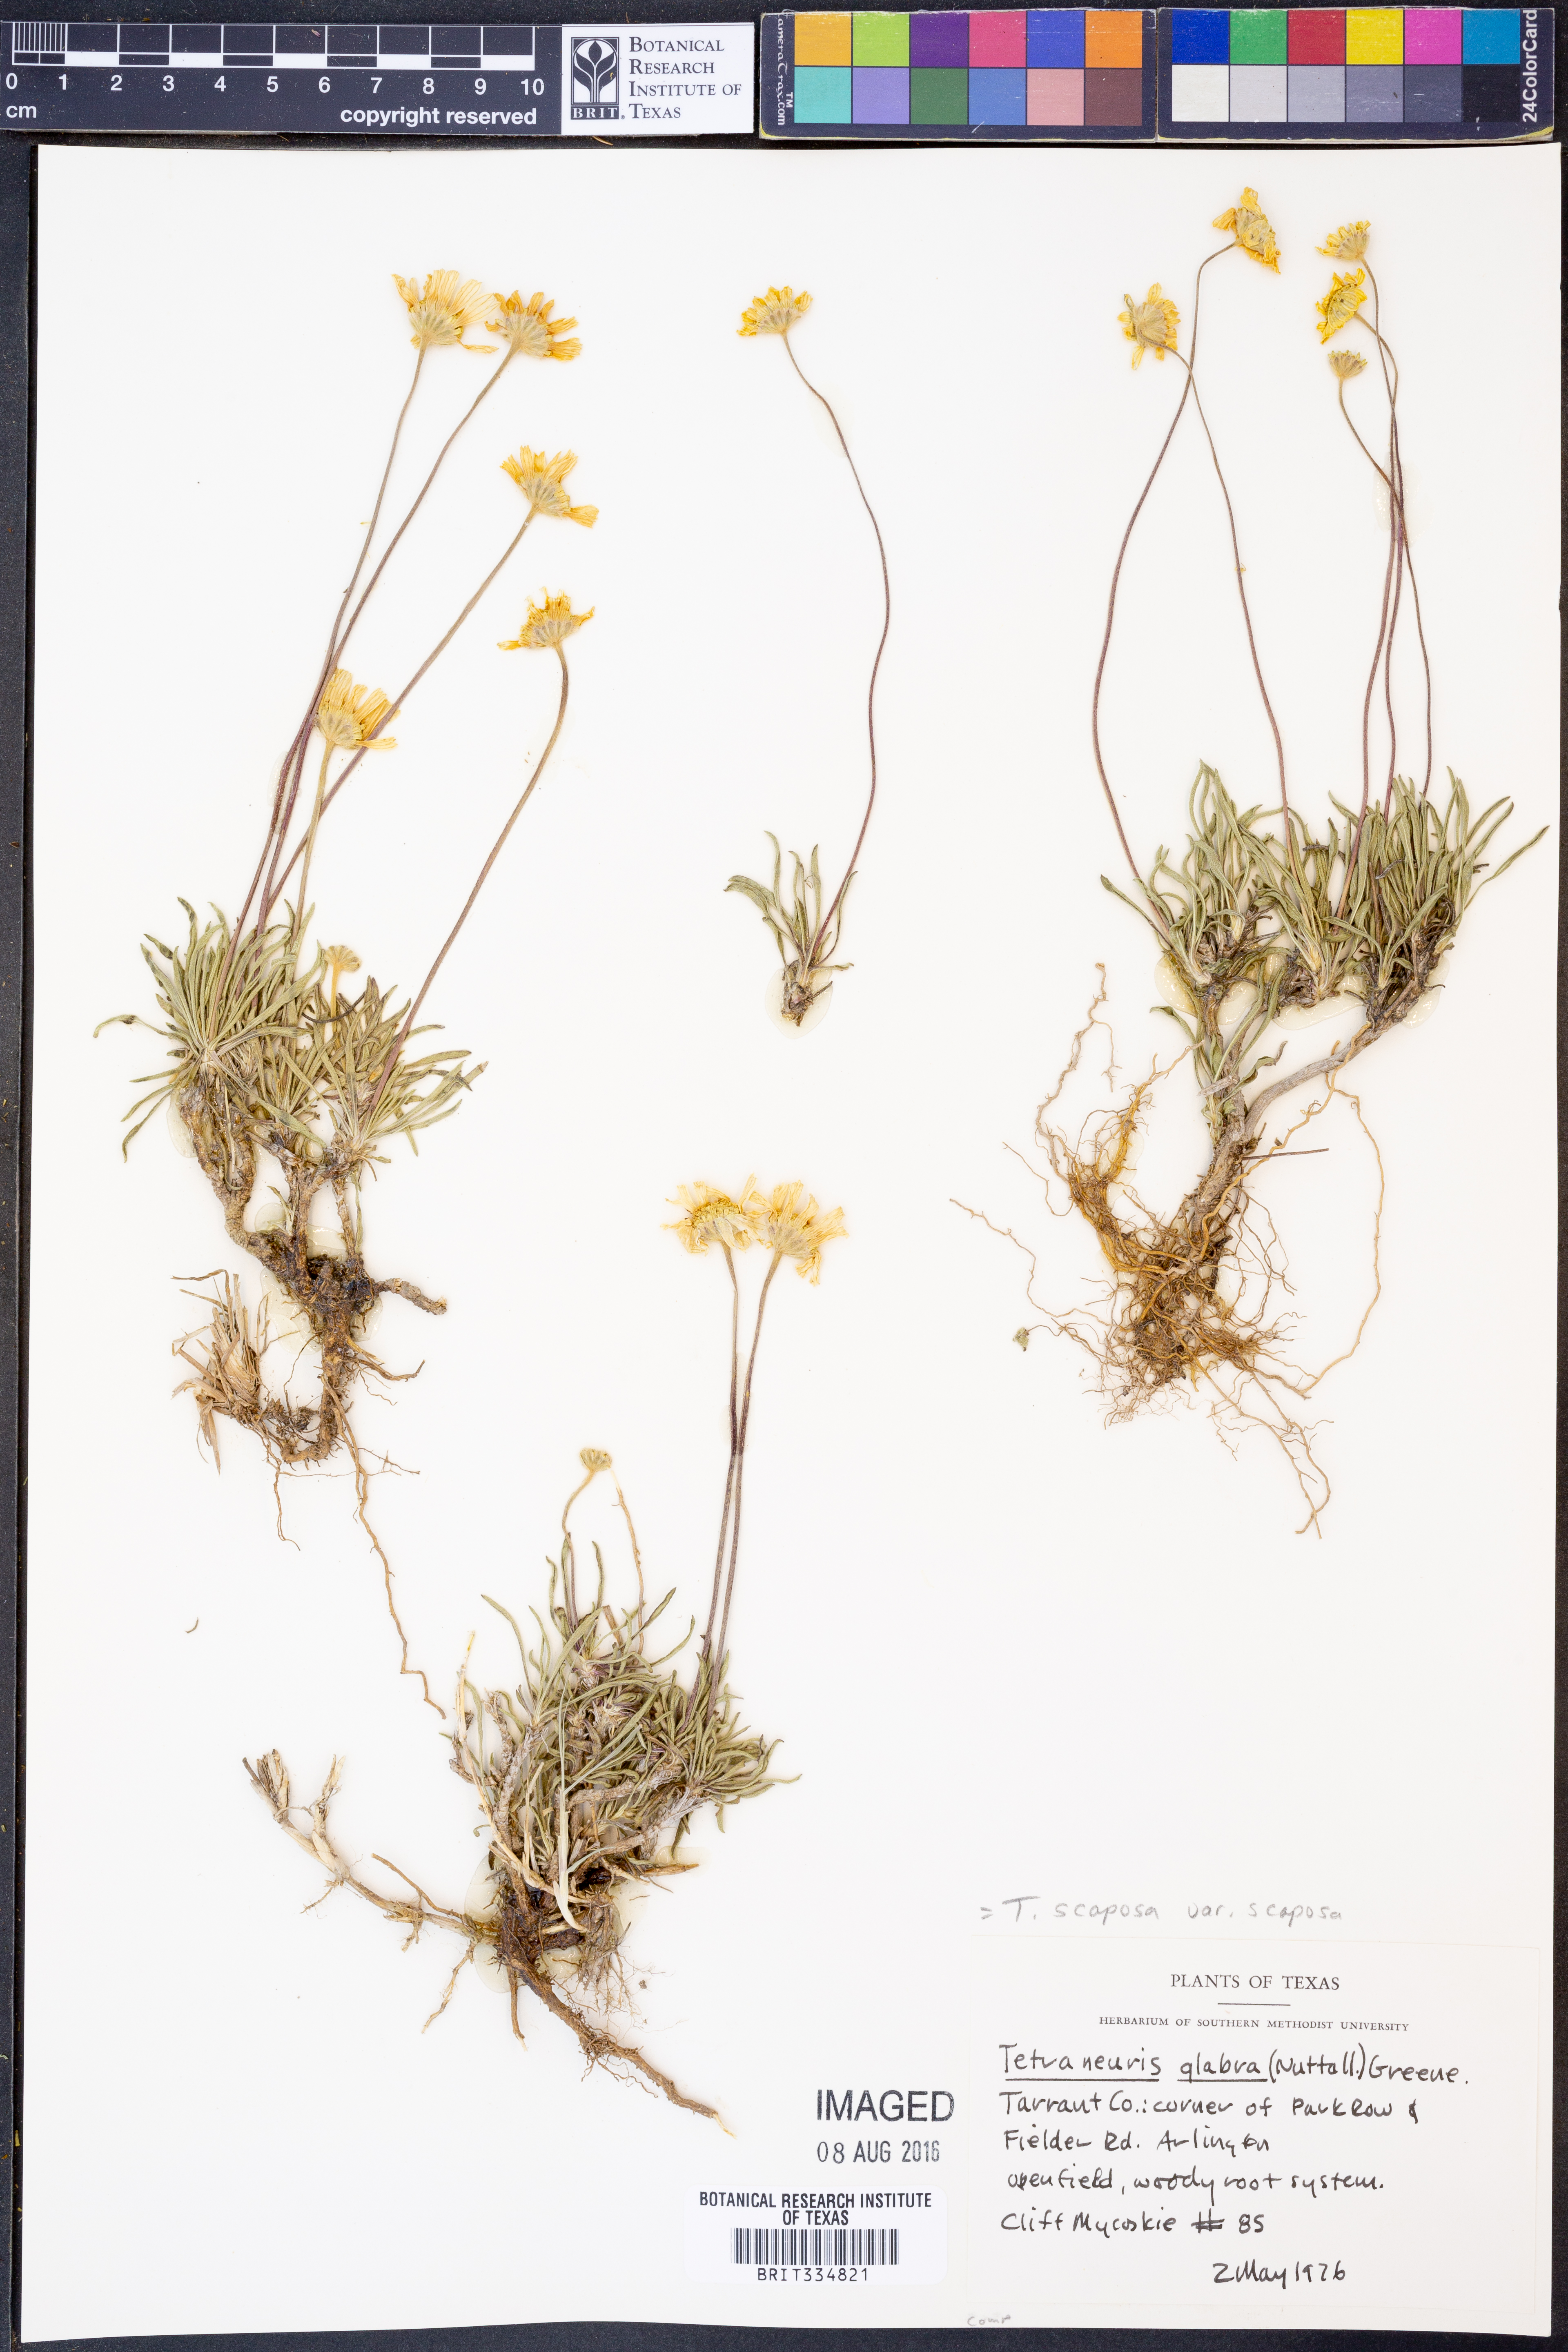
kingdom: Plantae
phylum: Tracheophyta
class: Magnoliopsida
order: Asterales
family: Asteraceae
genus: Tetraneuris
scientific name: Tetraneuris scaposa
